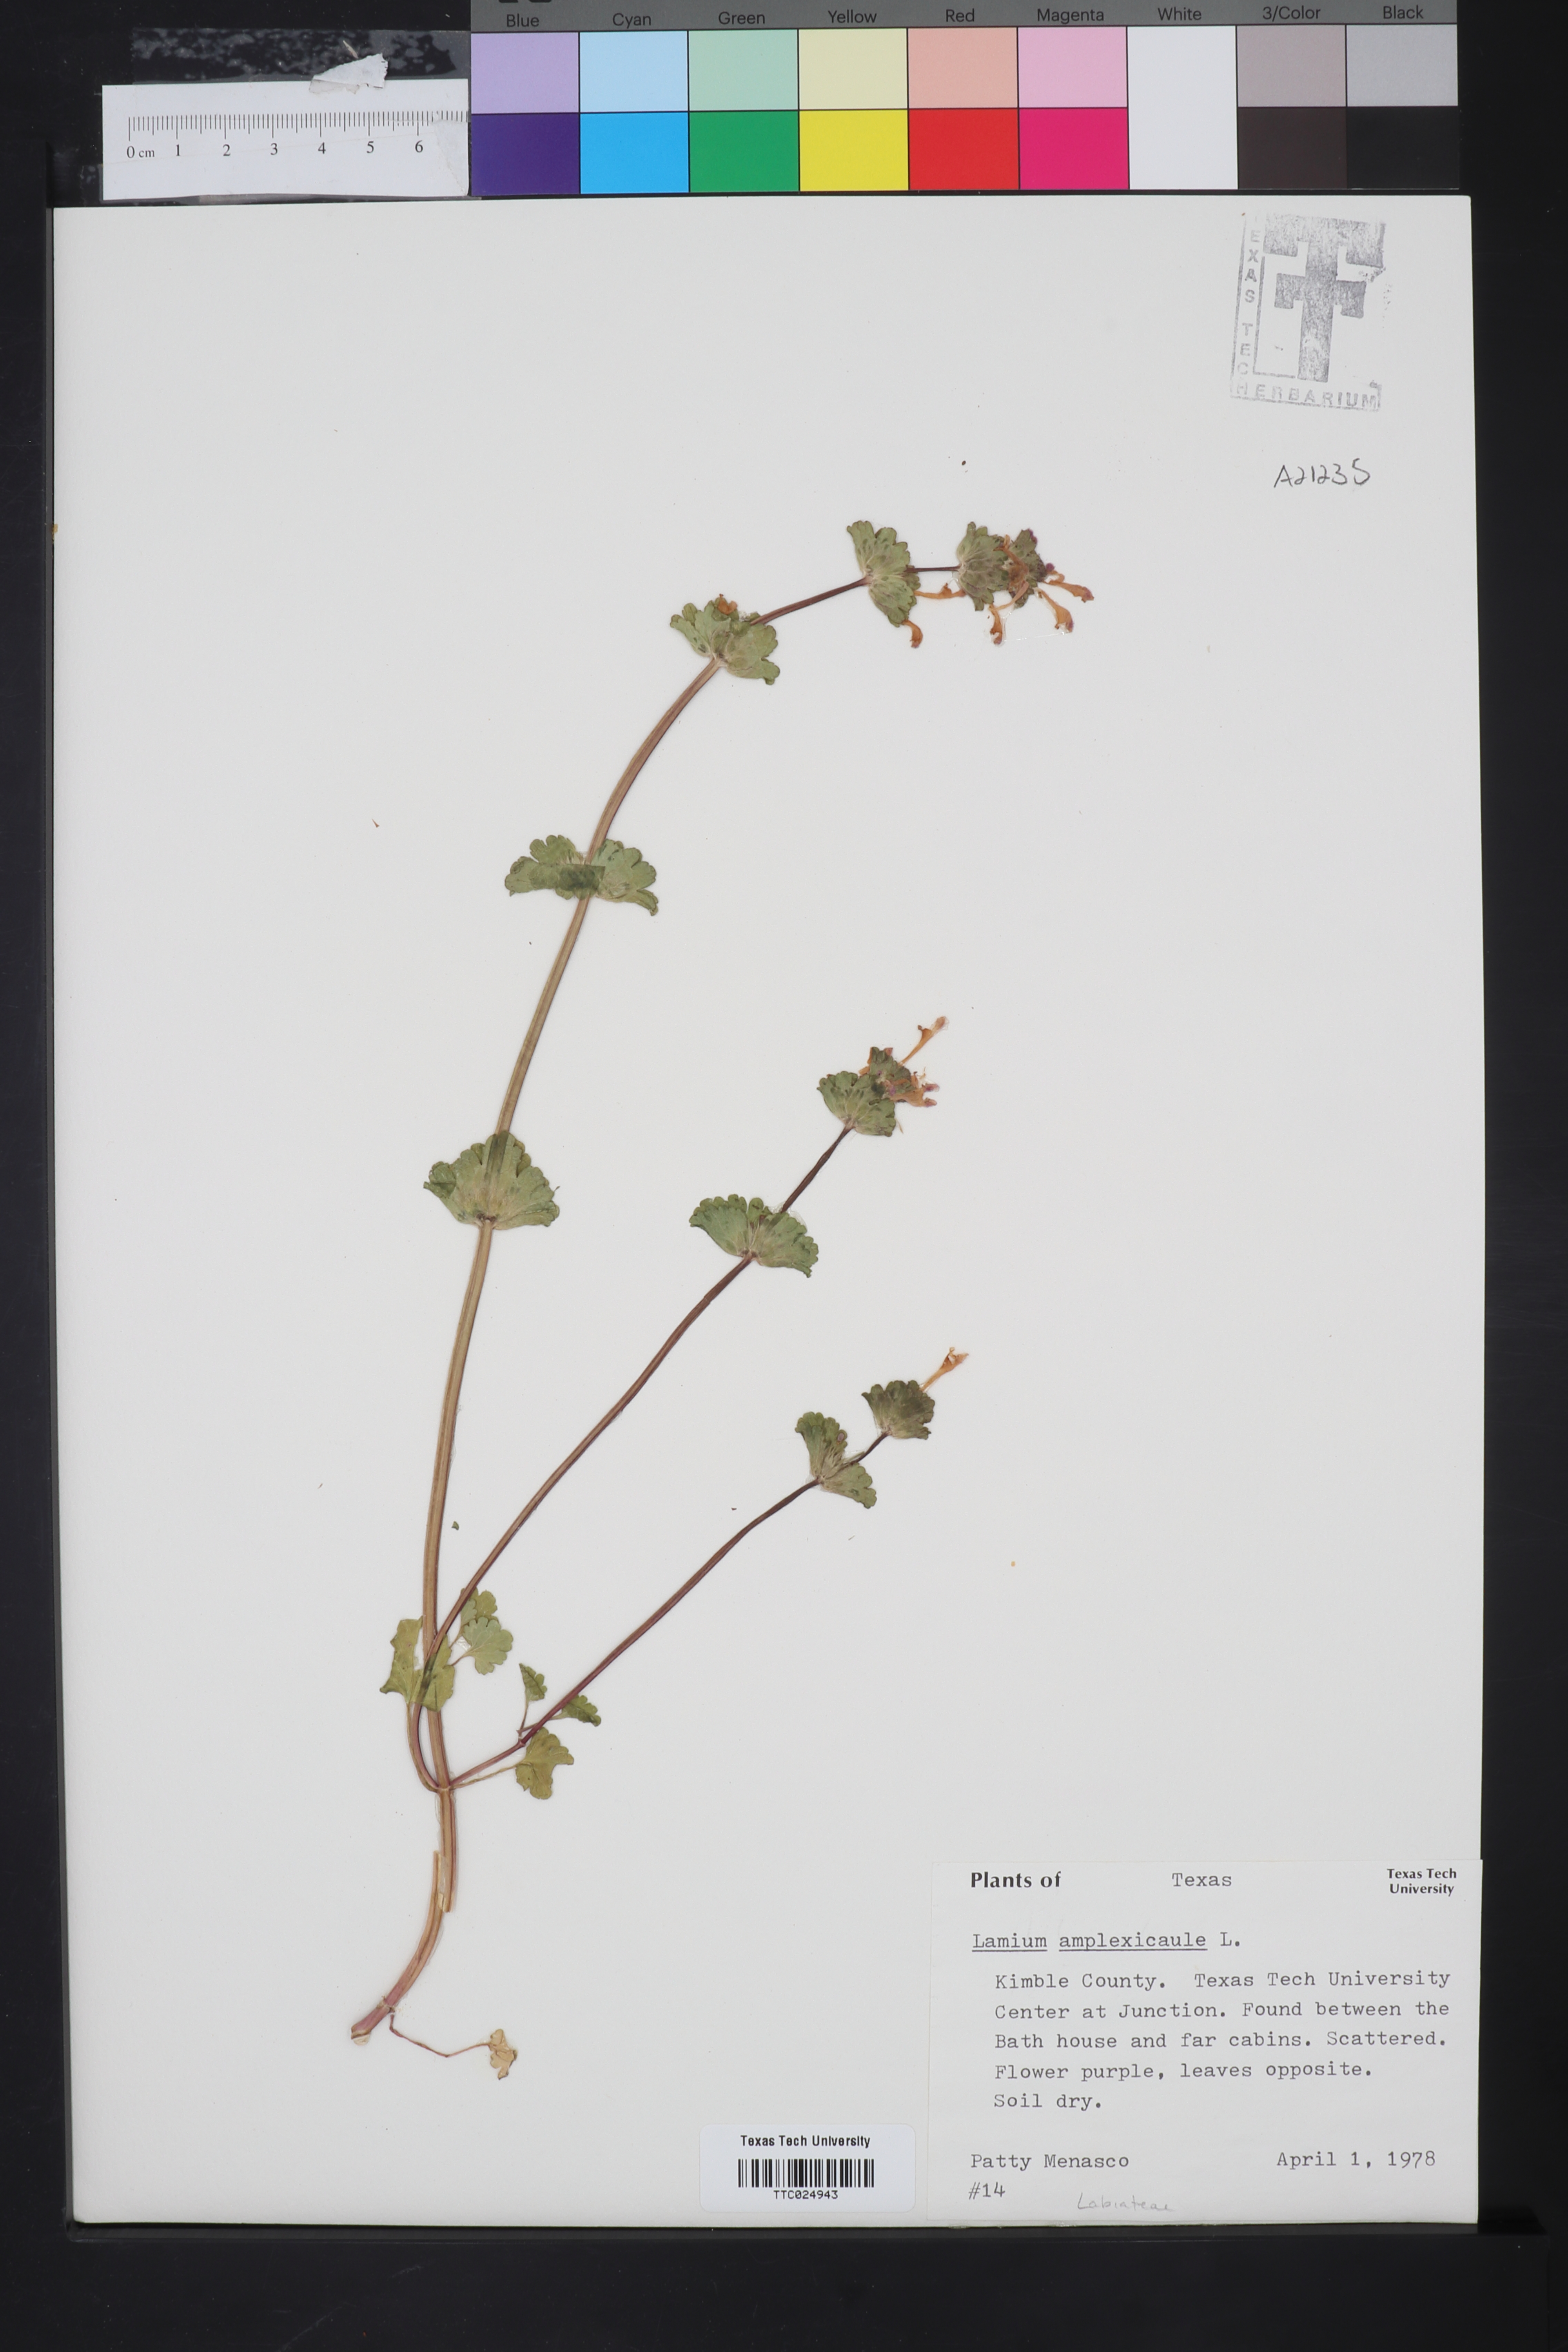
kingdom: Plantae
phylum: Tracheophyta
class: Magnoliopsida
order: Lamiales
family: Lamiaceae
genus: Lamium
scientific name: Lamium amplexicaule
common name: Henbit dead-nettle
